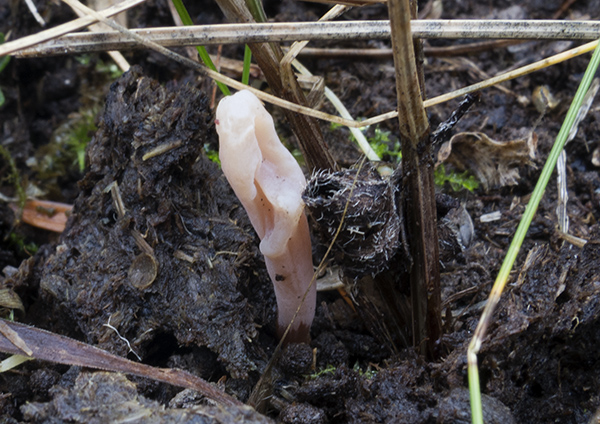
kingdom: Fungi
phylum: Basidiomycota
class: Agaricomycetes
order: Agaricales
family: Clavariaceae
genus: Clavaria
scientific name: Clavaria rosea
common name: rosenrød køllesvamp
